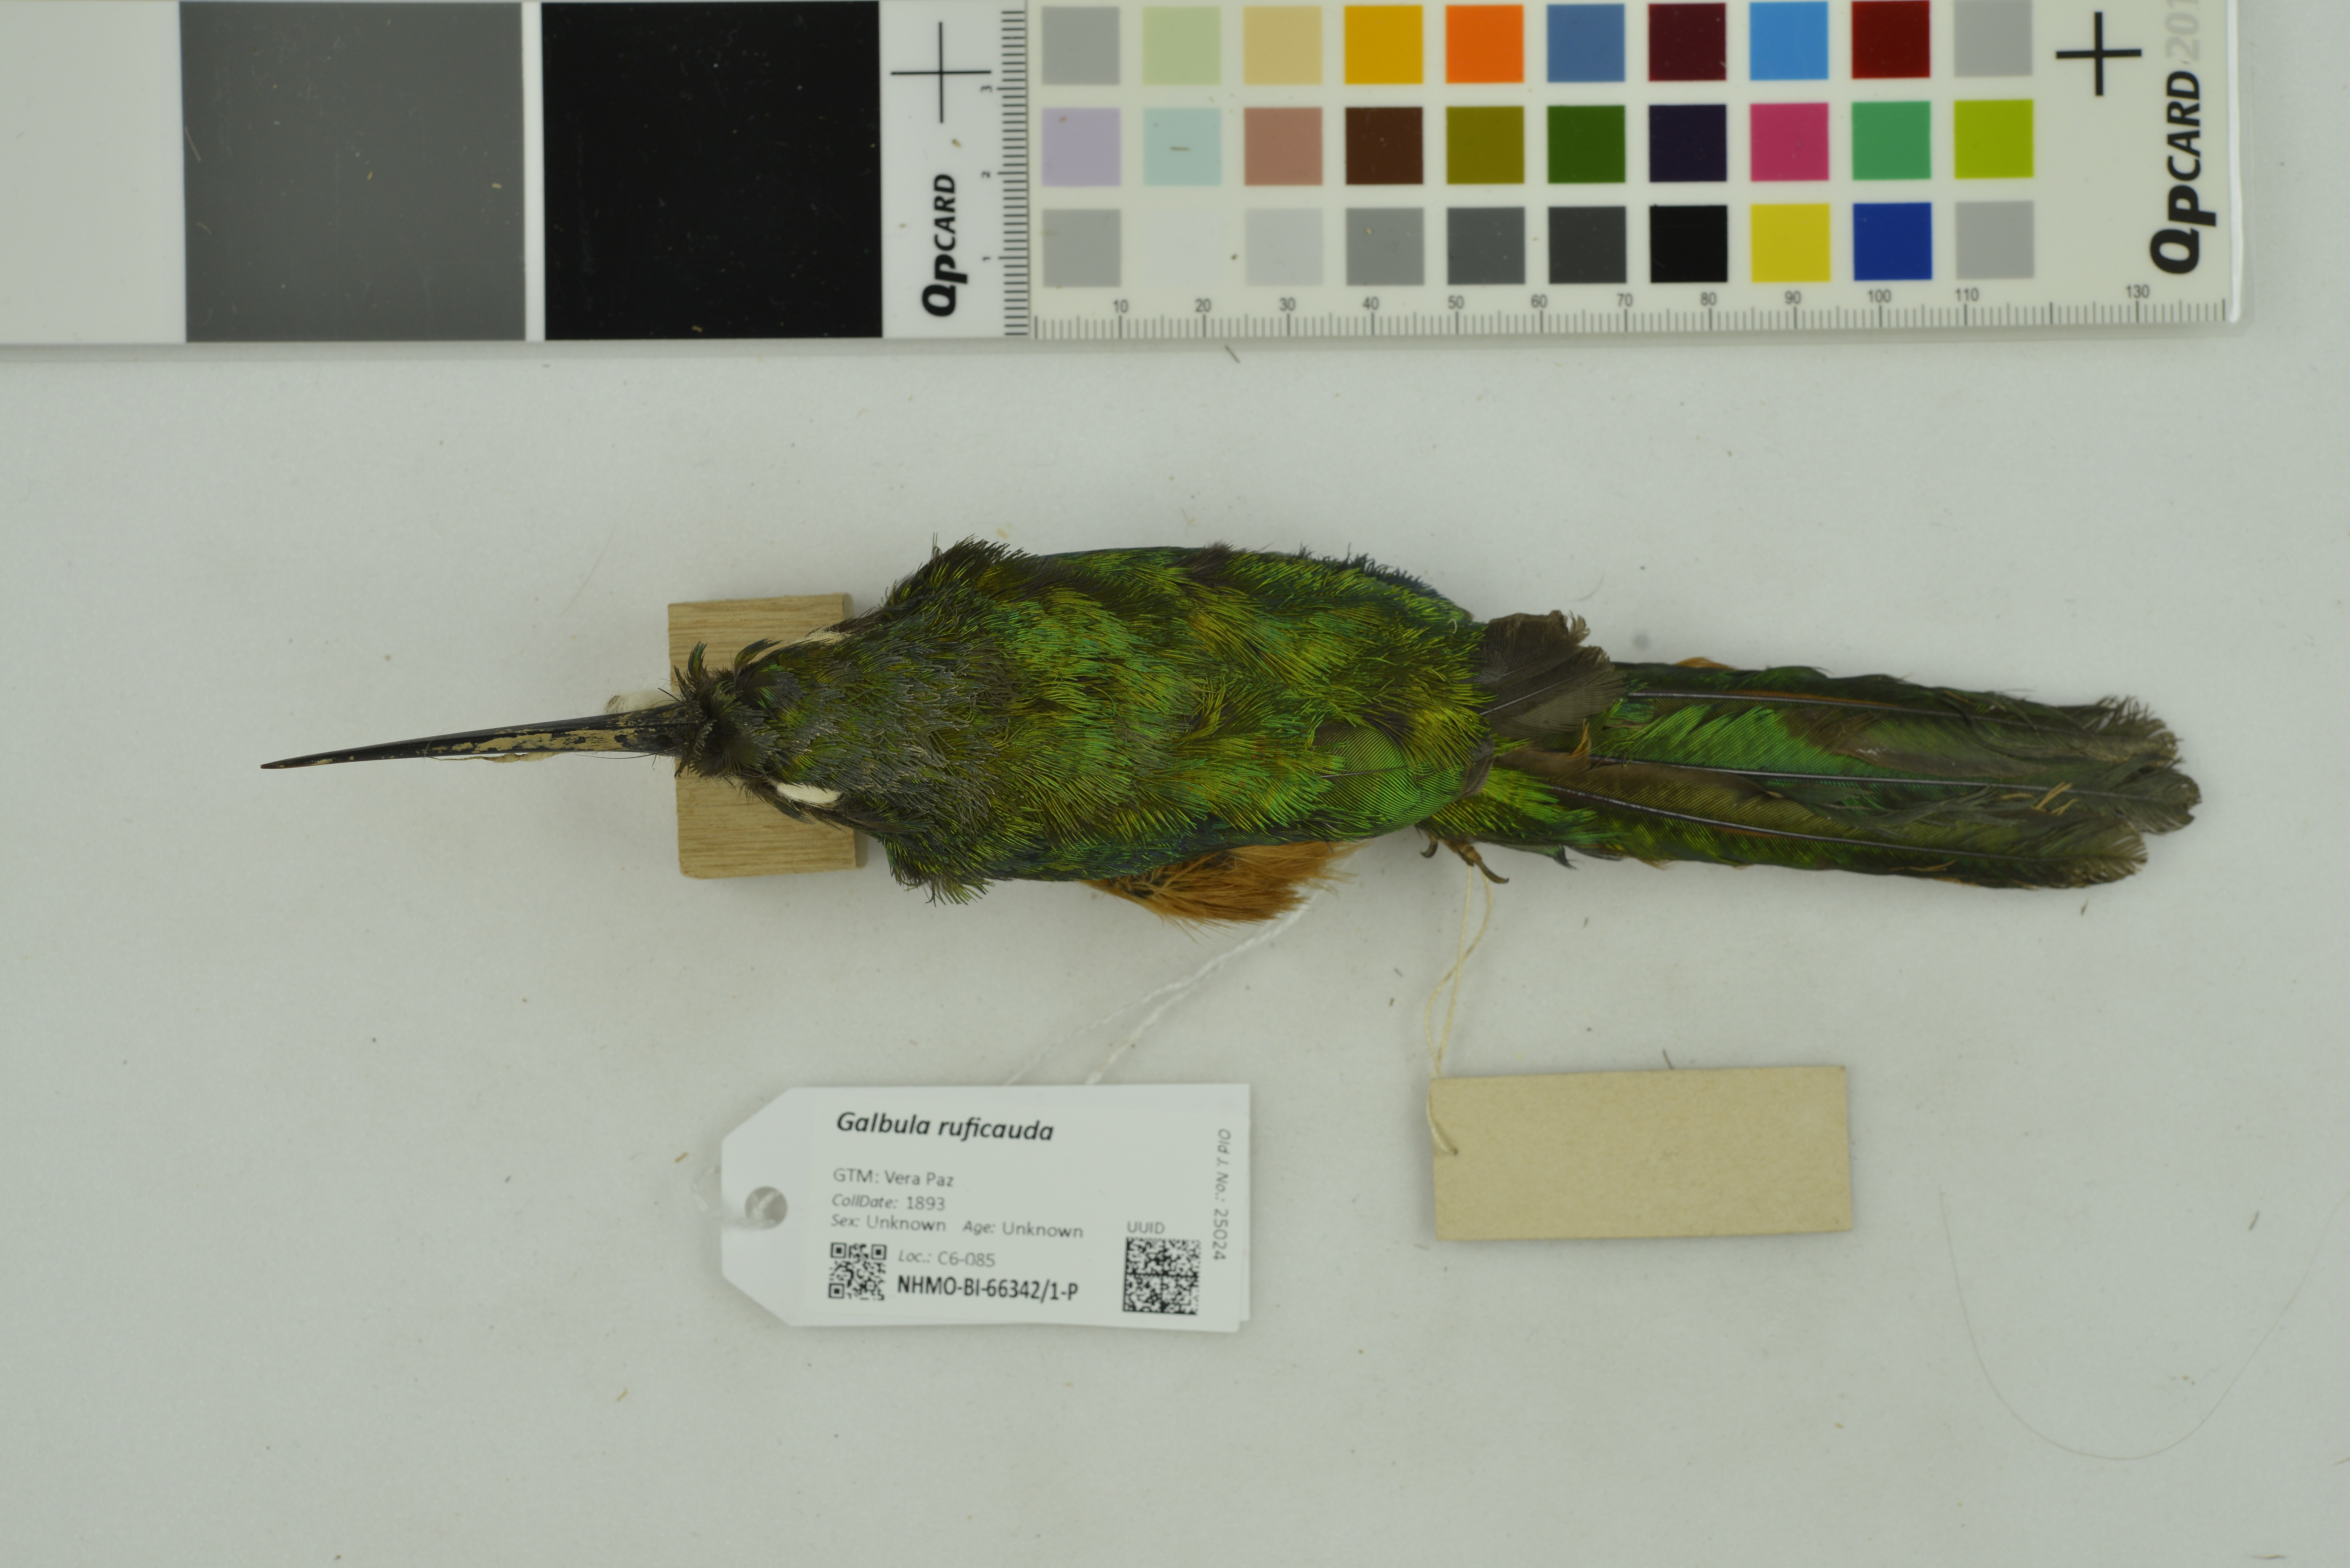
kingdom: Animalia
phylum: Chordata
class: Aves
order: Piciformes
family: Galbulidae
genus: Galbula
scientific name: Galbula ruficauda
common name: Rufous-tailed jacamar
